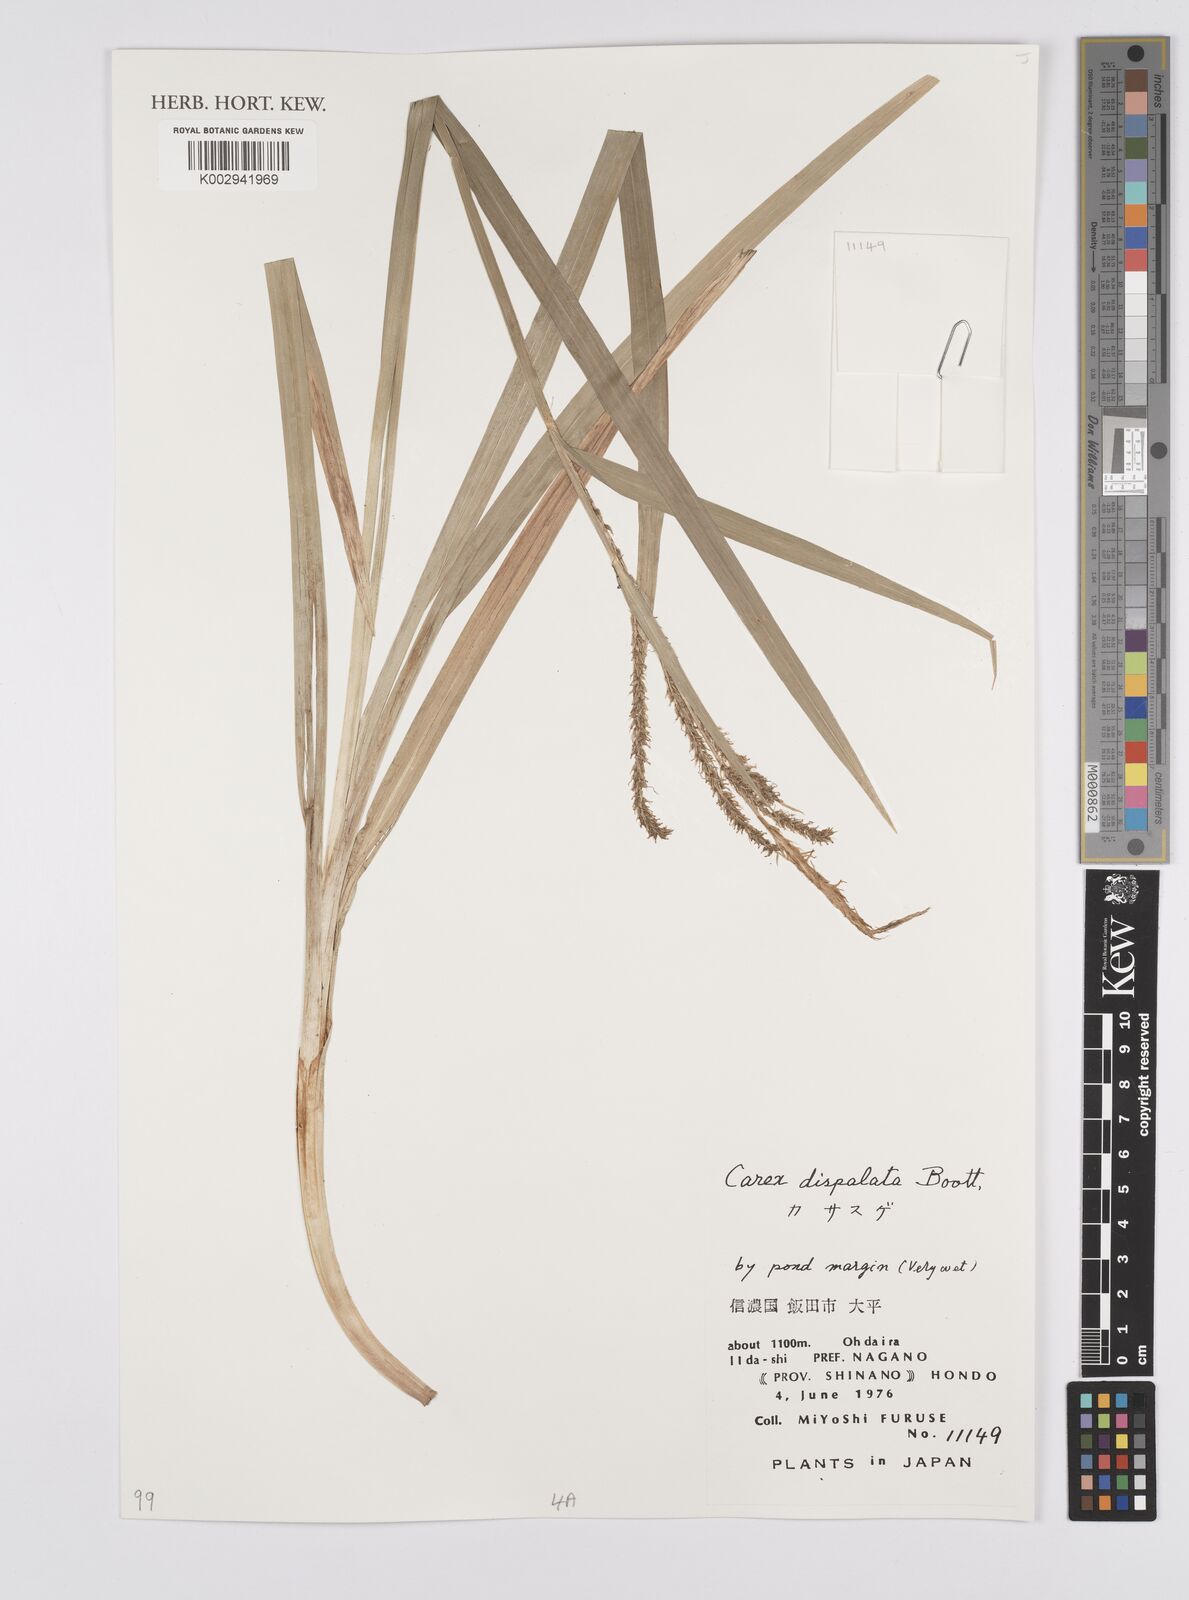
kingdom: Plantae
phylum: Tracheophyta
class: Liliopsida
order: Poales
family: Cyperaceae
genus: Carex
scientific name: Carex dispalata
